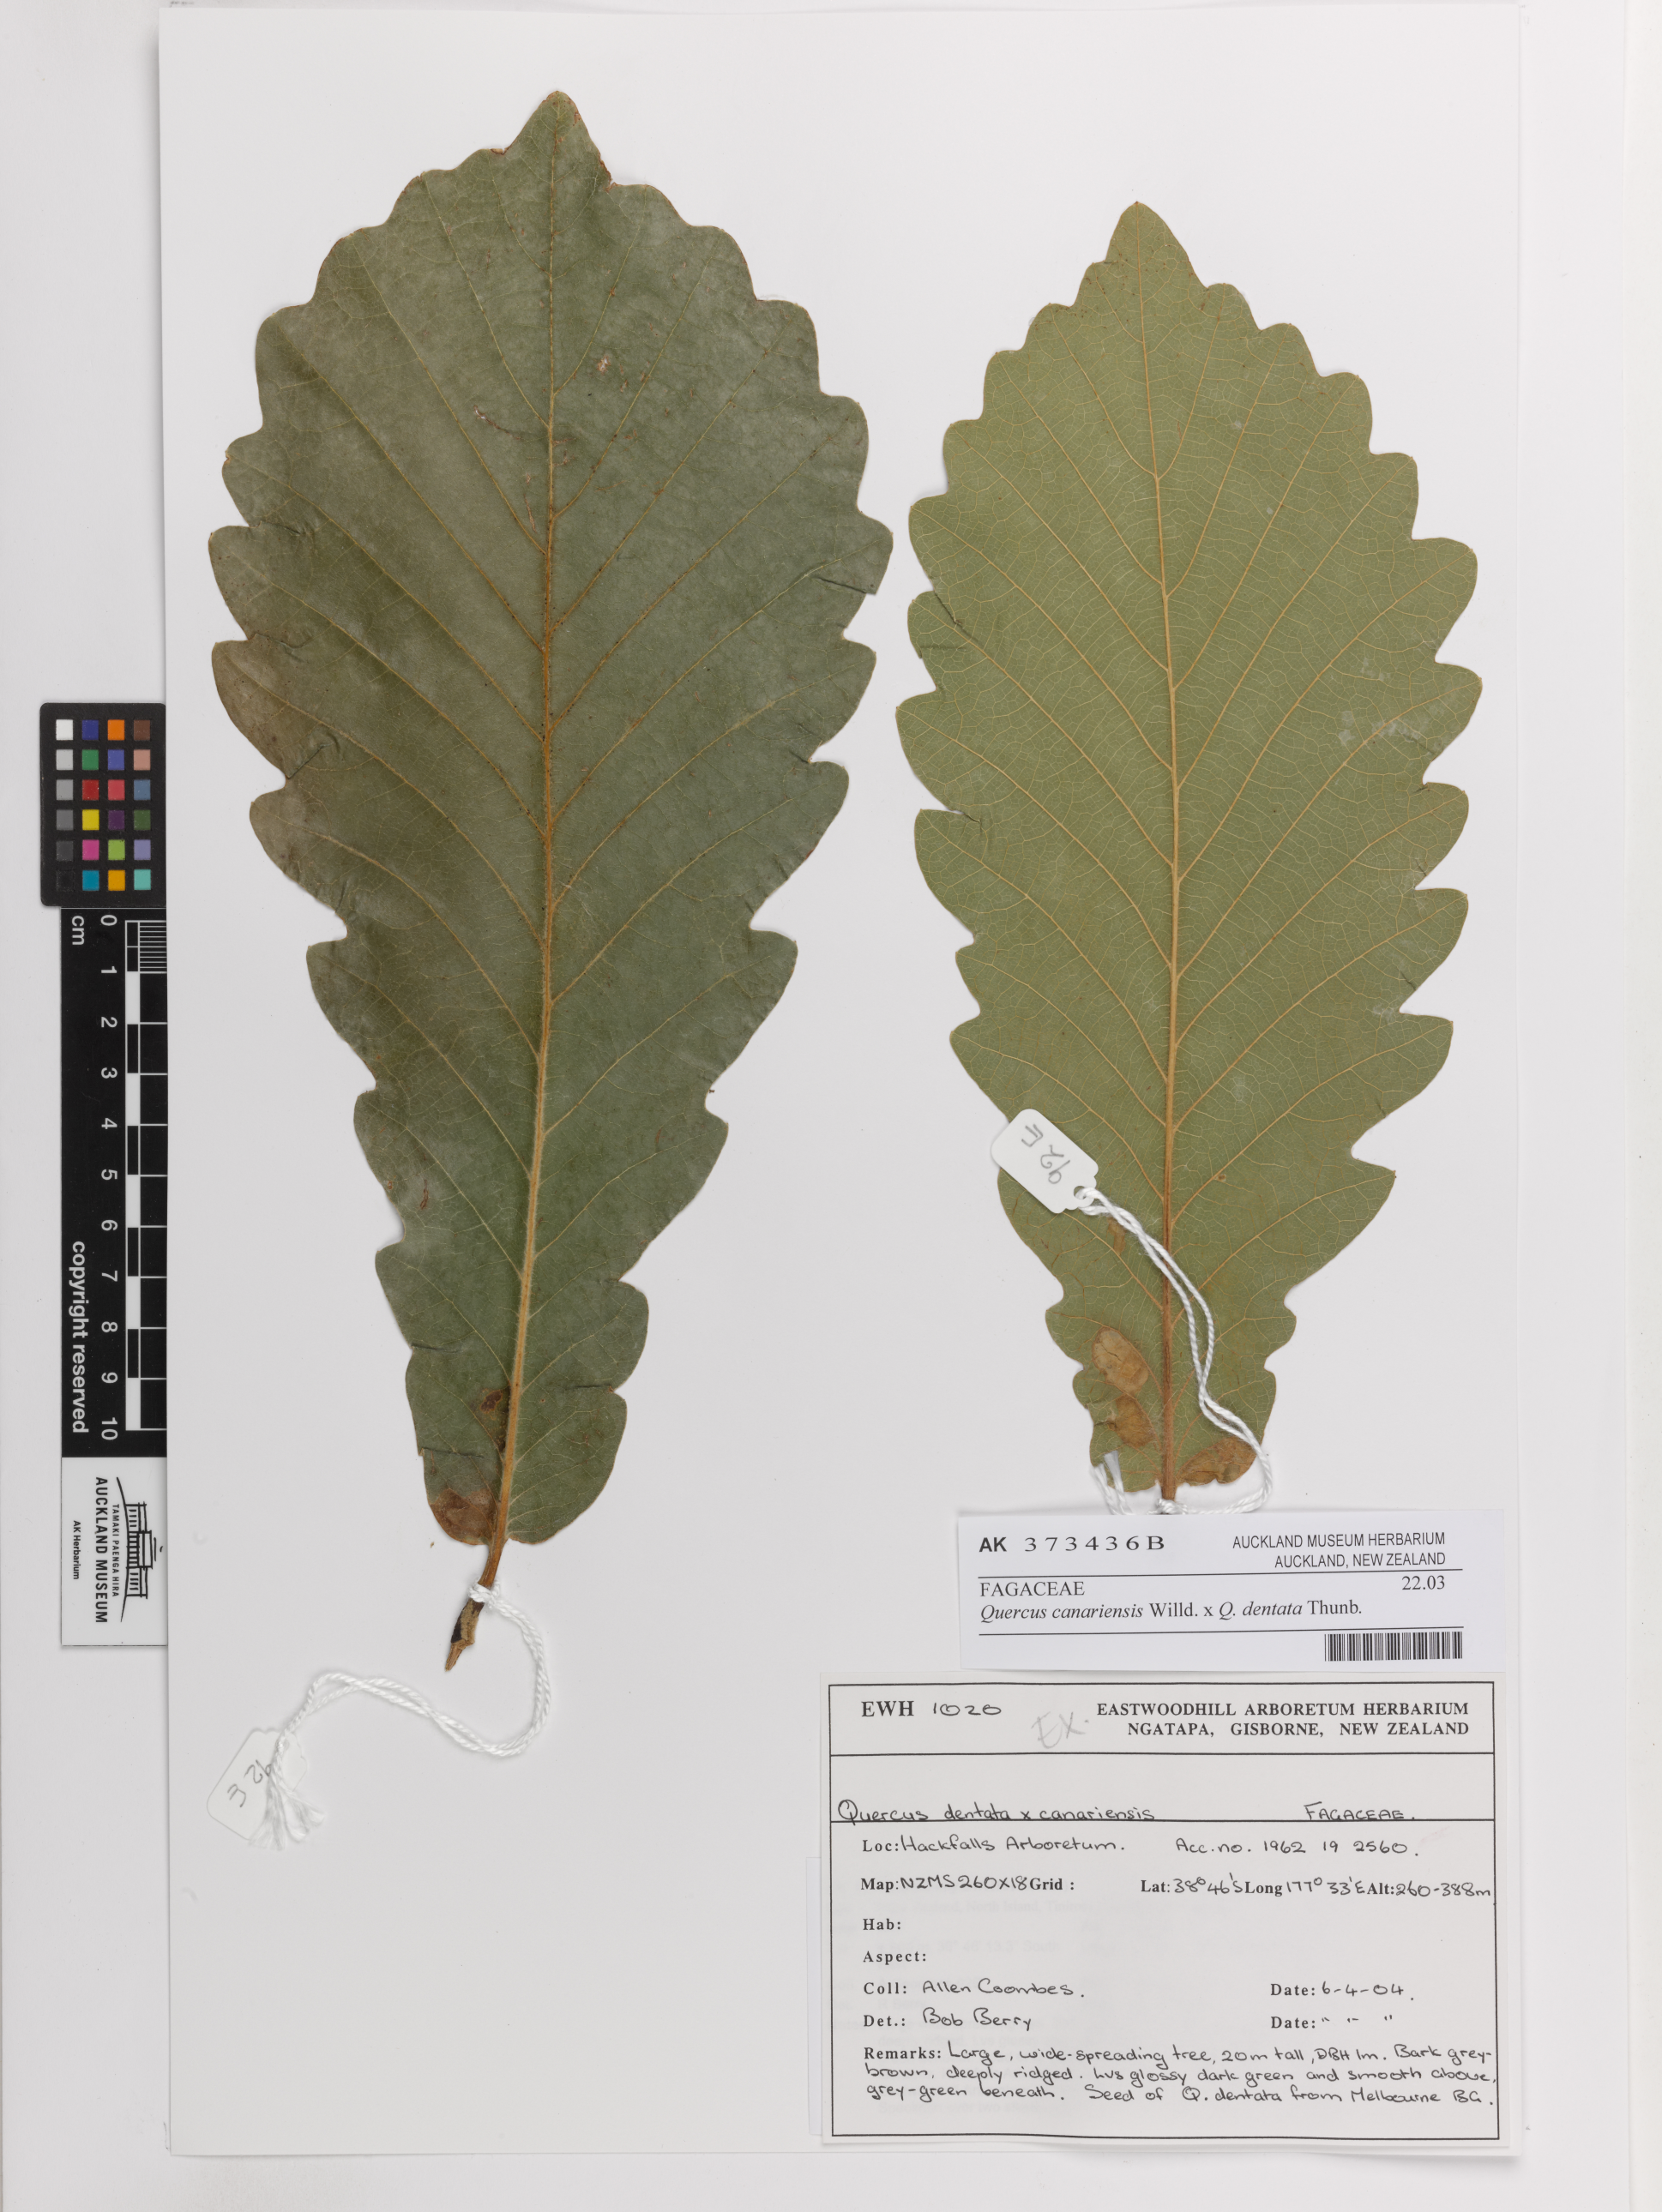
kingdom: Plantae
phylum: Tracheophyta
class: Magnoliopsida
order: Fagales
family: Fagaceae
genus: Quercus
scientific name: Quercus
